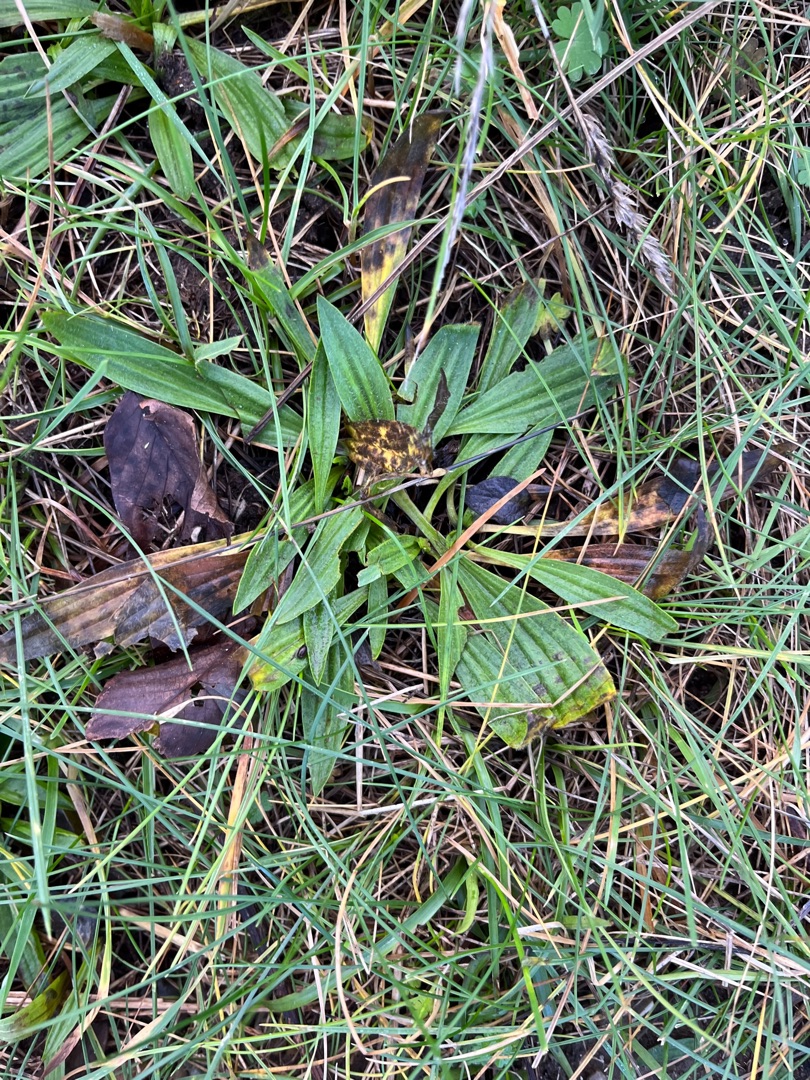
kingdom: Plantae
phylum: Tracheophyta
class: Magnoliopsida
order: Lamiales
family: Plantaginaceae
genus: Plantago
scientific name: Plantago lanceolata
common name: Lancet-vejbred
